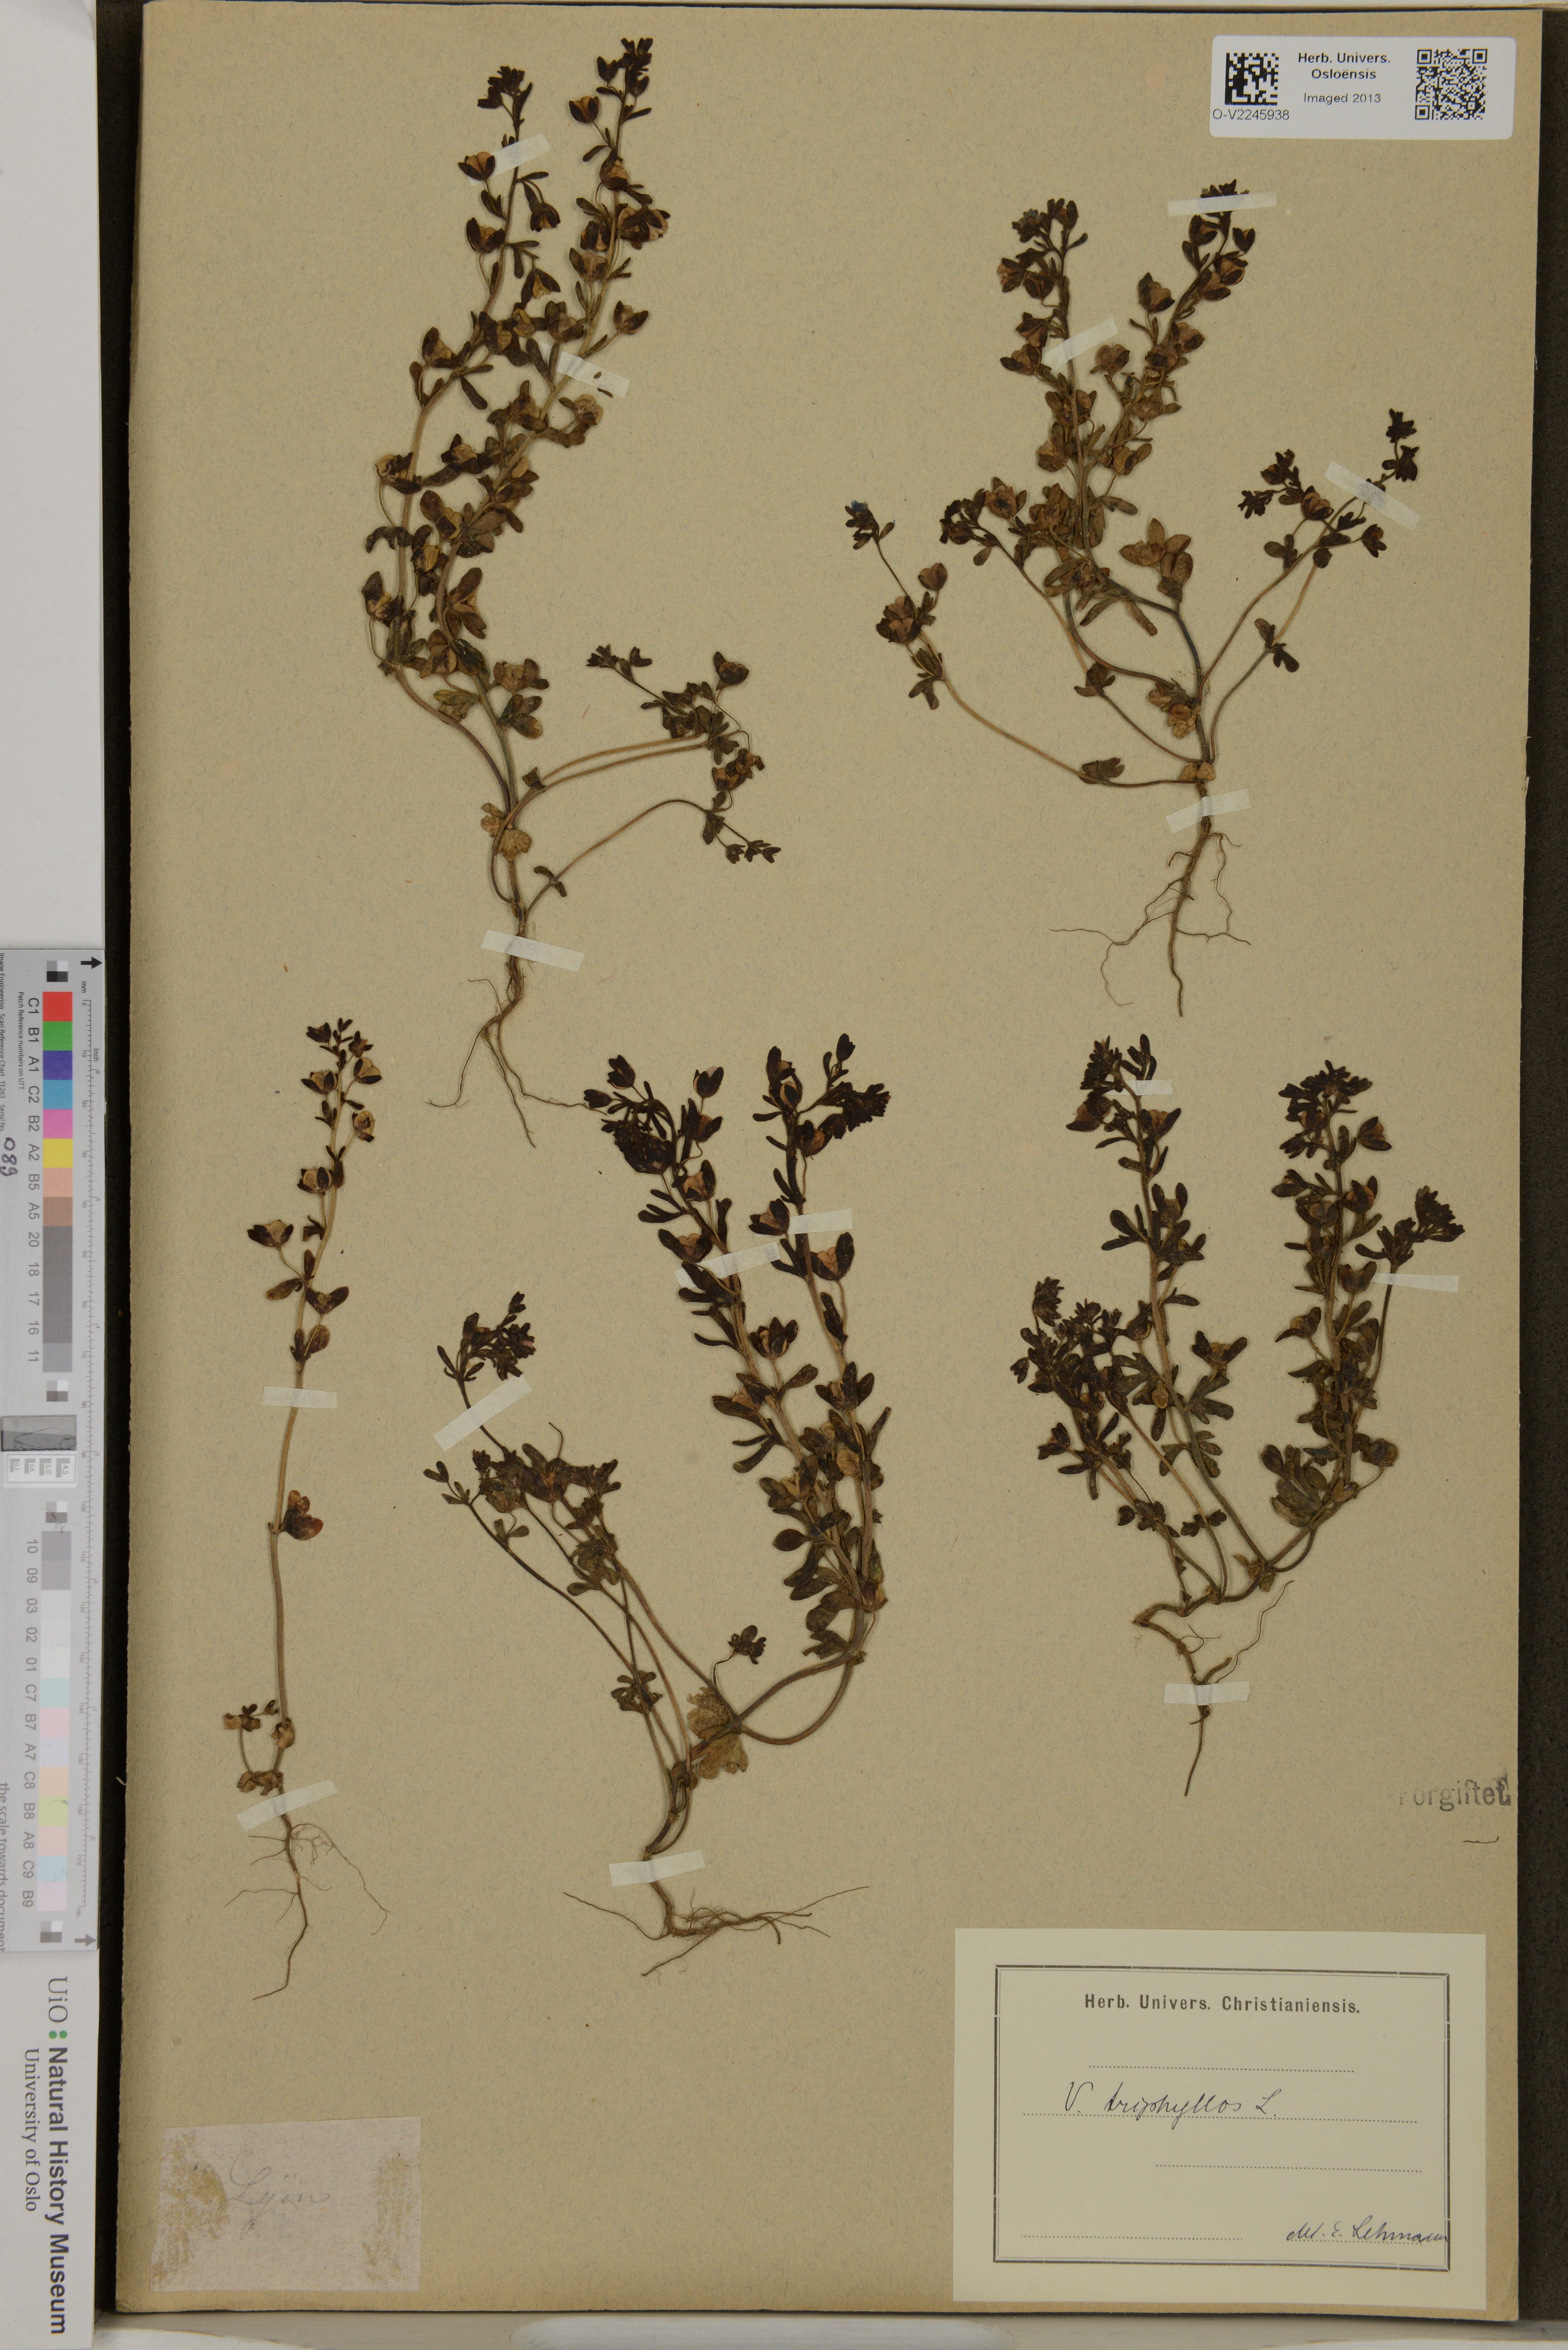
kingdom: Plantae
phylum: Tracheophyta
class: Magnoliopsida
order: Lamiales
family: Plantaginaceae
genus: Veronica
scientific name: Veronica triphyllos
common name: Fingered speedwell
